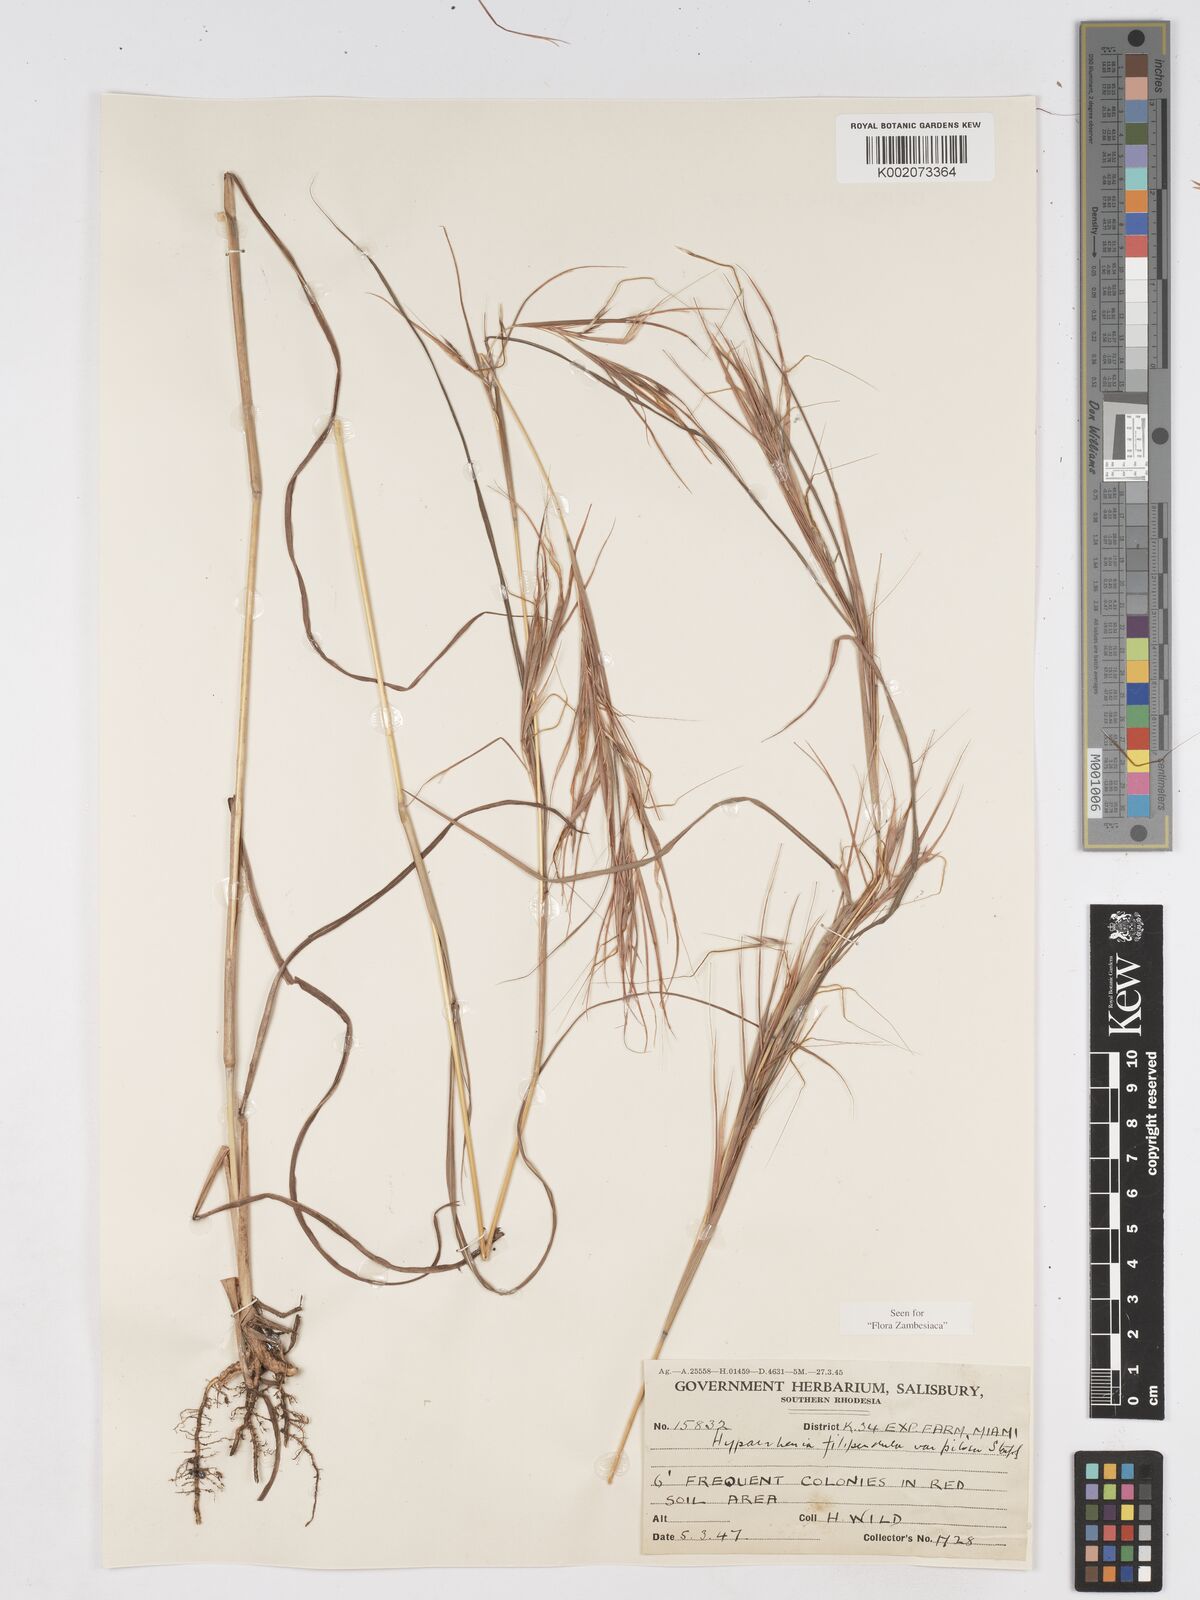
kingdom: Plantae
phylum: Tracheophyta
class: Liliopsida
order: Poales
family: Poaceae
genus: Hyparrhenia
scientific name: Hyparrhenia filipendula
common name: Tambookie grass
